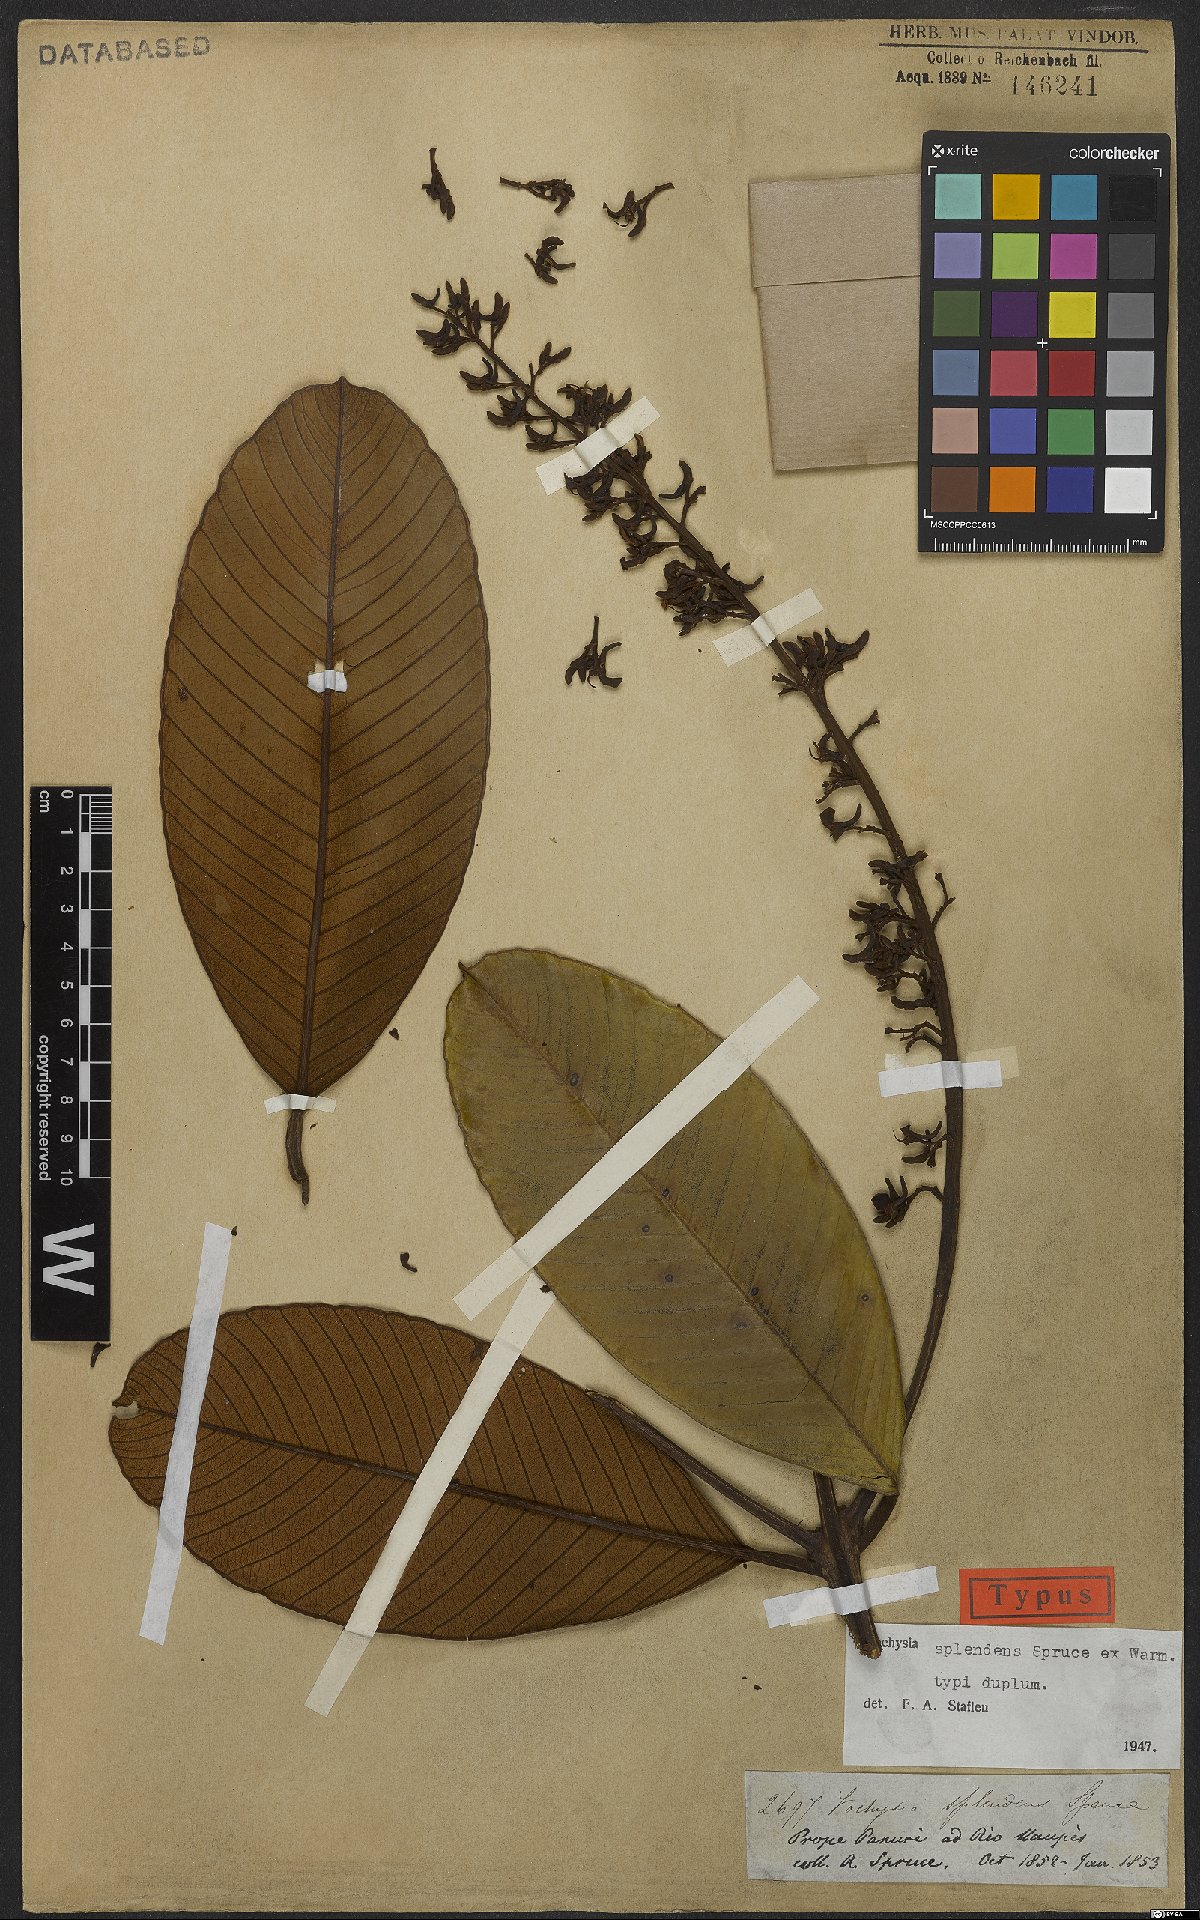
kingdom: Plantae
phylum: Tracheophyta
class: Magnoliopsida
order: Myrtales
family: Vochysiaceae
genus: Vochysia
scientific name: Vochysia splendens
